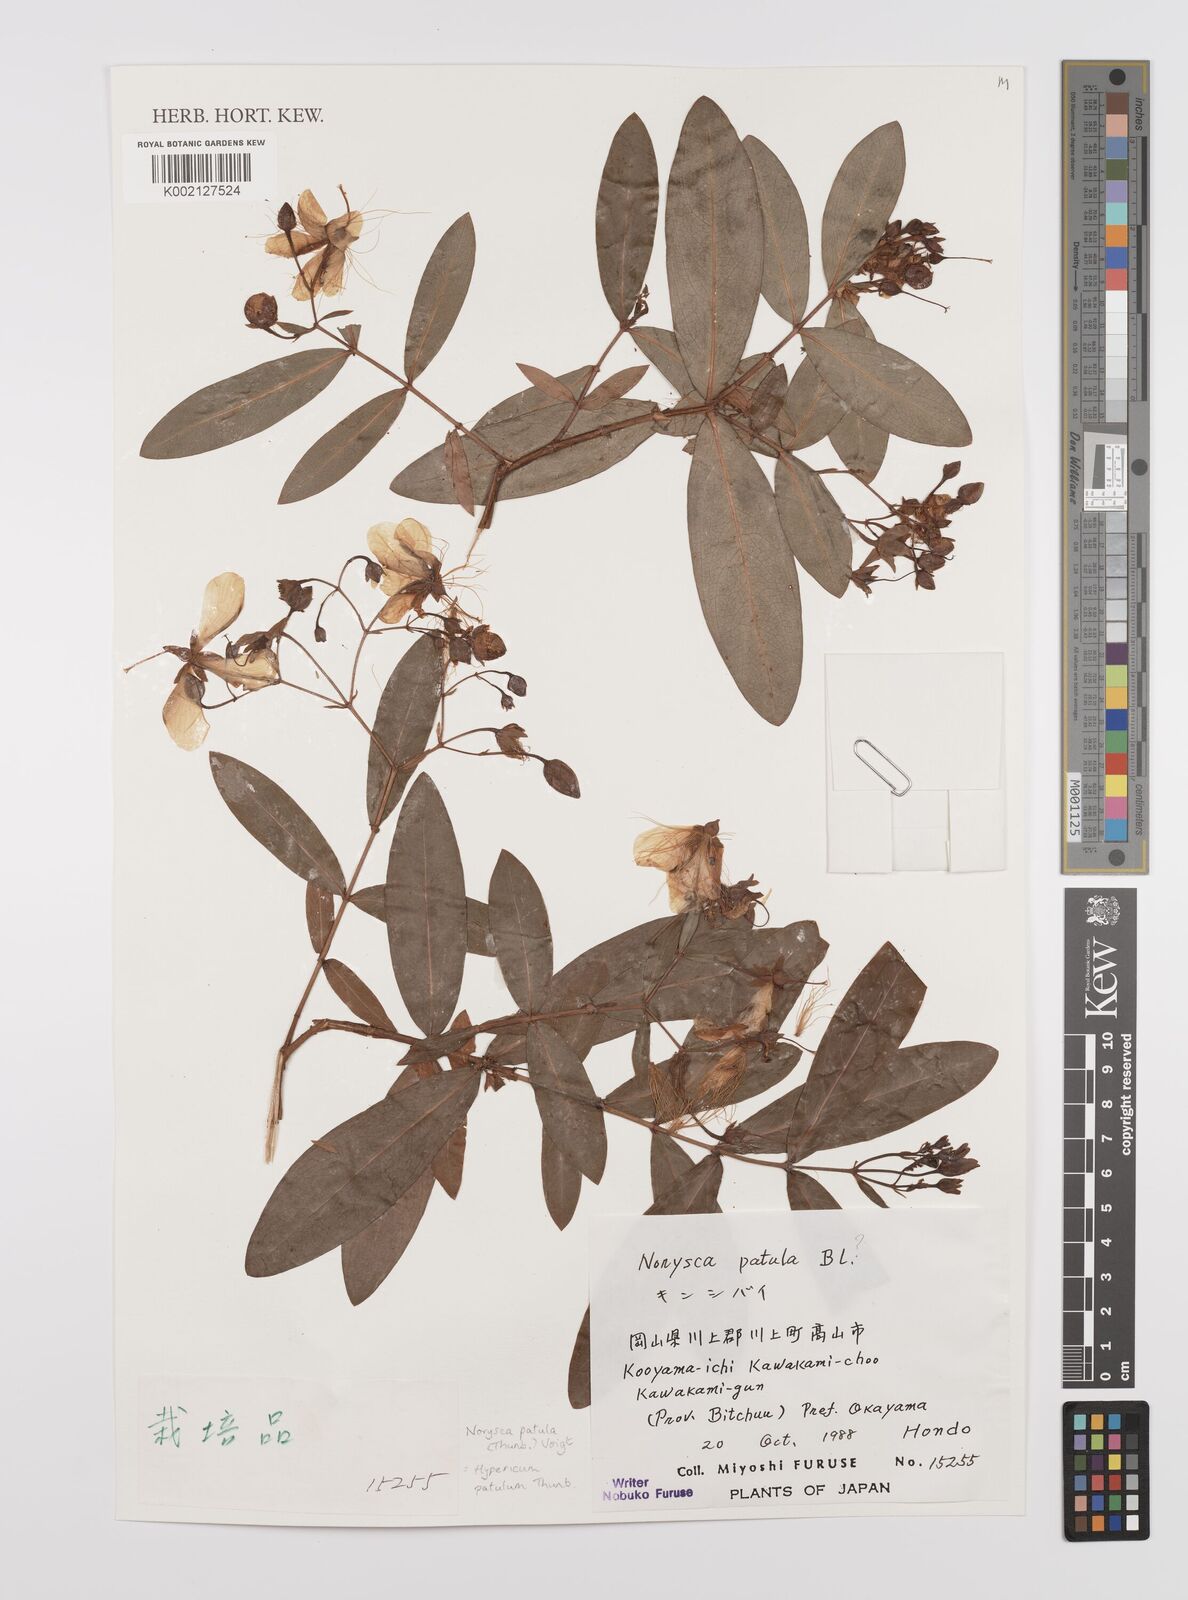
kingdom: Plantae
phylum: Tracheophyta
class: Magnoliopsida
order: Malpighiales
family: Hypericaceae
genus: Hypericum
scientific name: Hypericum patulum
